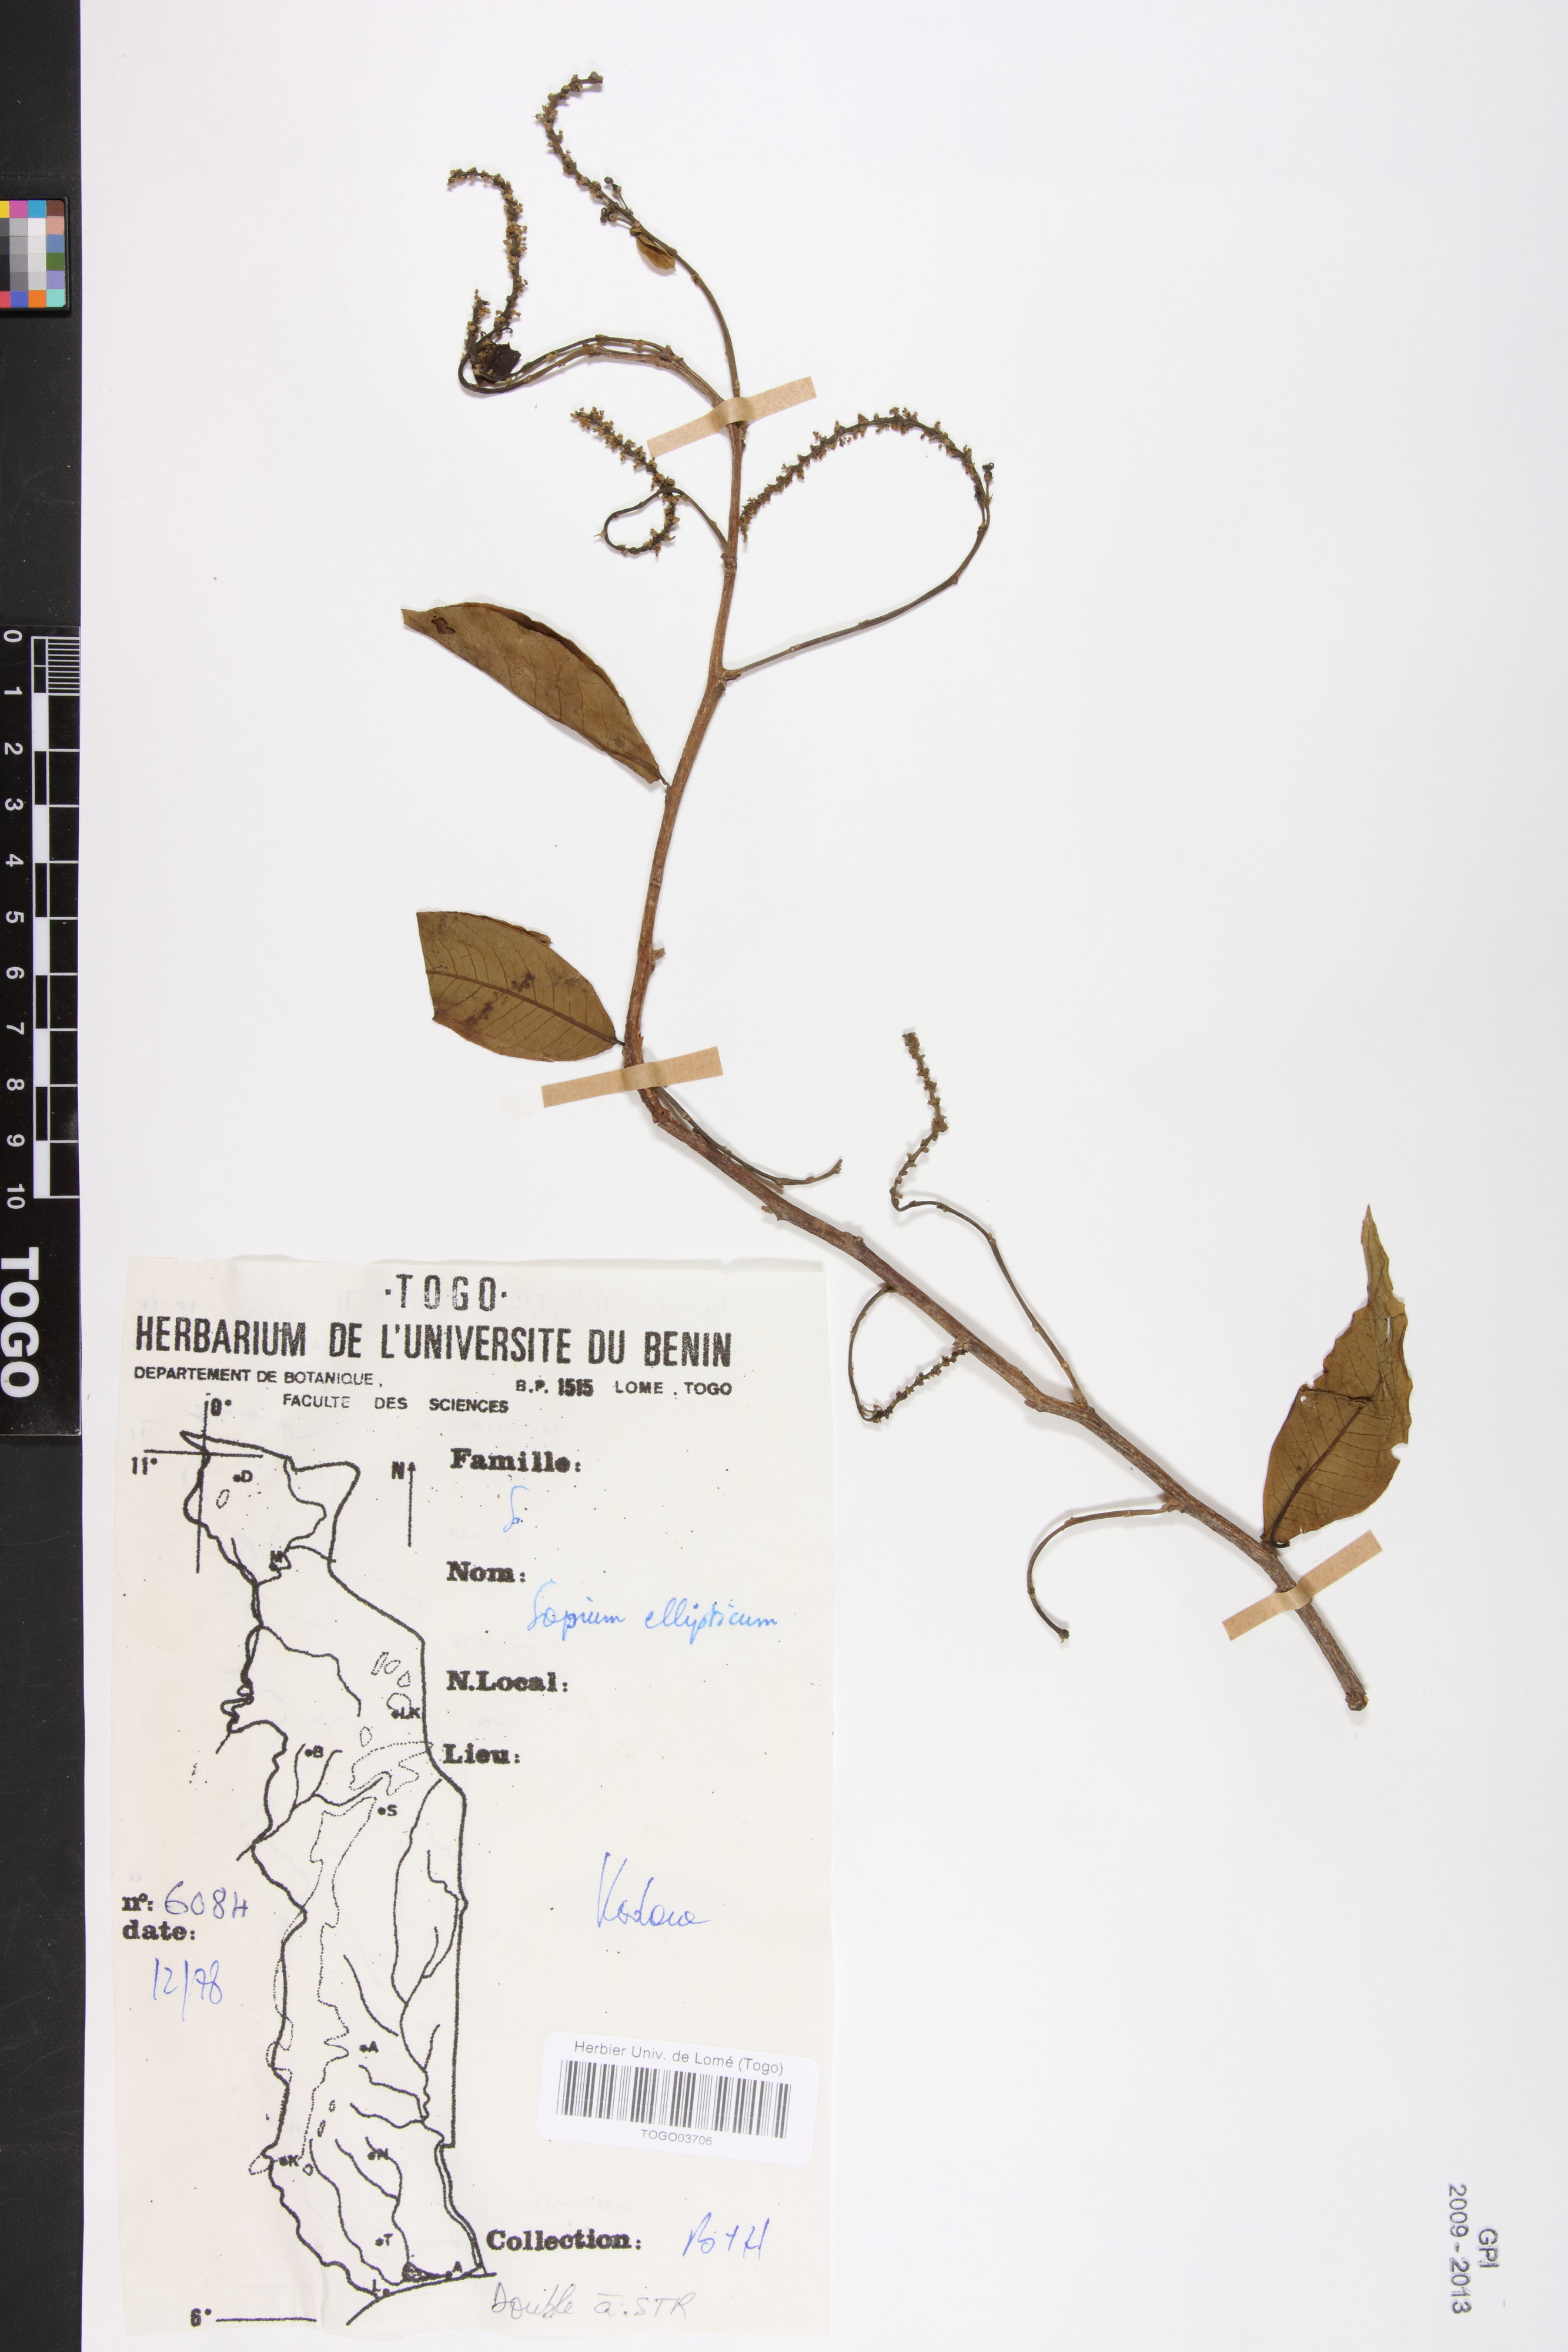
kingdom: Plantae
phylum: Tracheophyta
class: Magnoliopsida
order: Malpighiales
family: Euphorbiaceae
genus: Shirakiopsis
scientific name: Shirakiopsis elliptica
